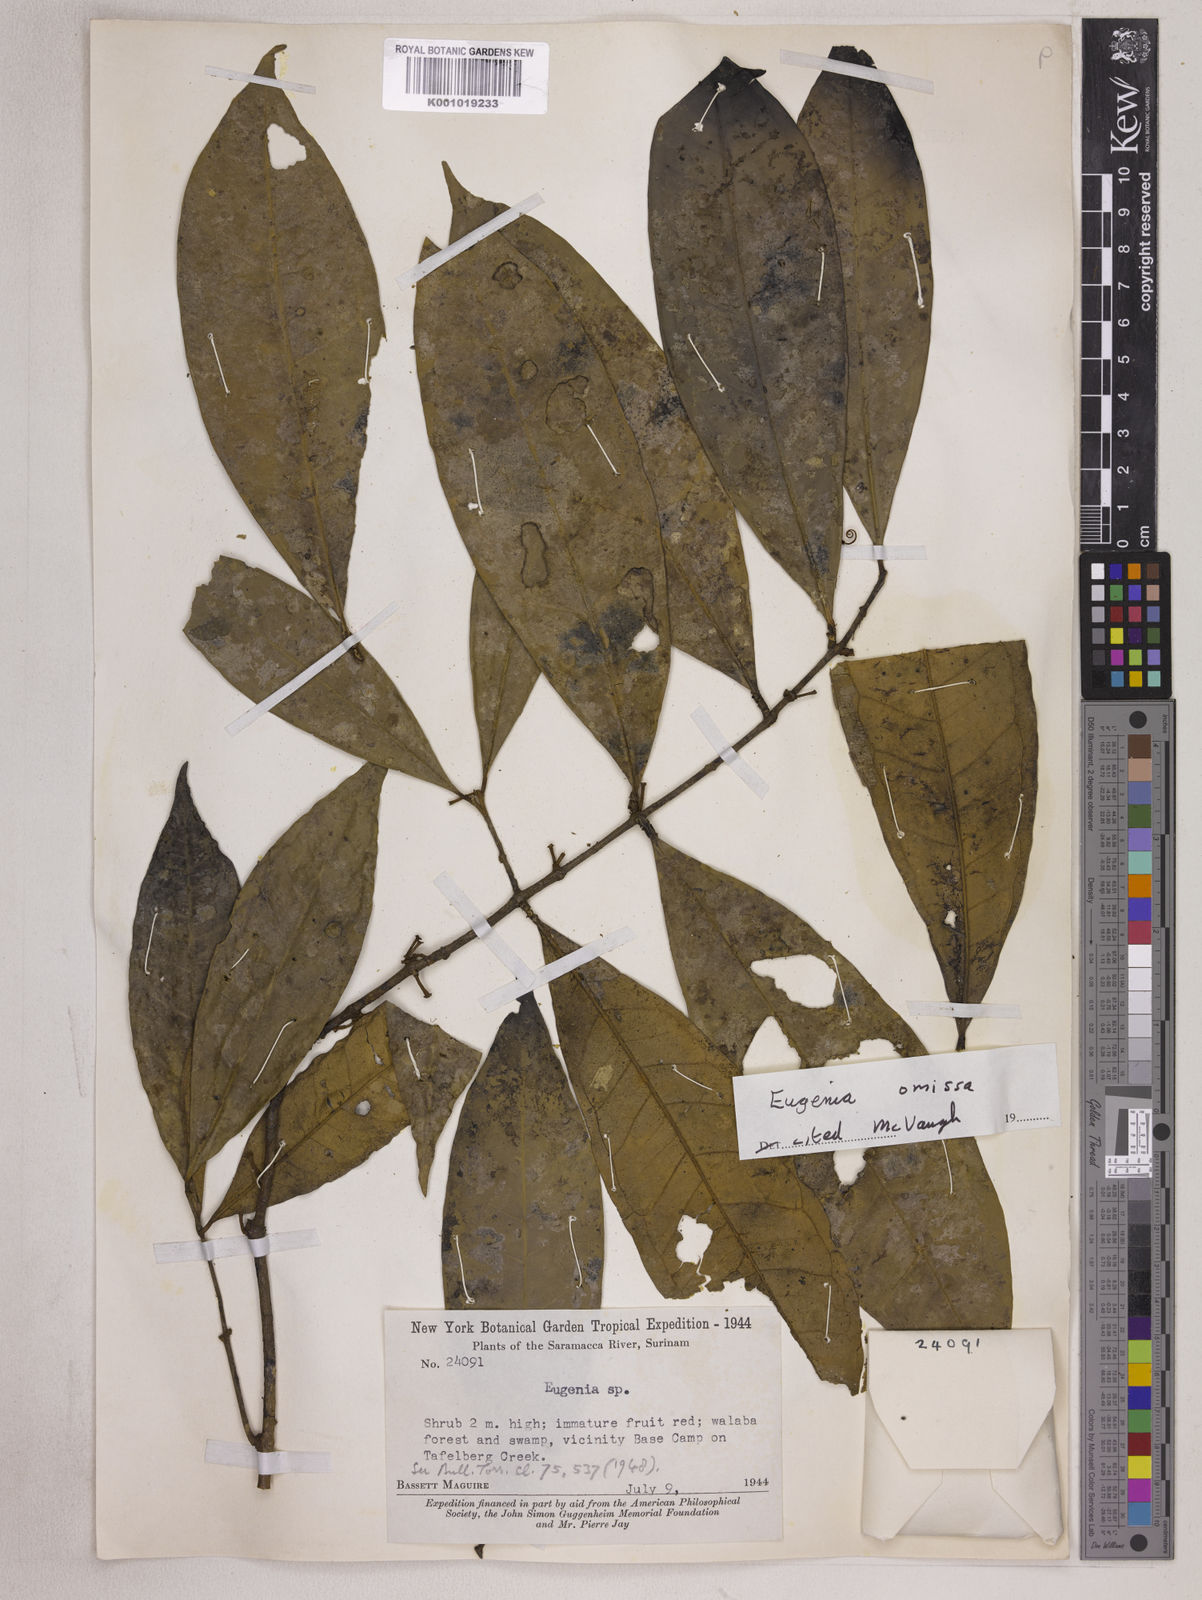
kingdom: Plantae
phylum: Tracheophyta
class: Magnoliopsida
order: Myrtales
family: Myrtaceae
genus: Eugenia
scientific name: Eugenia omissa
